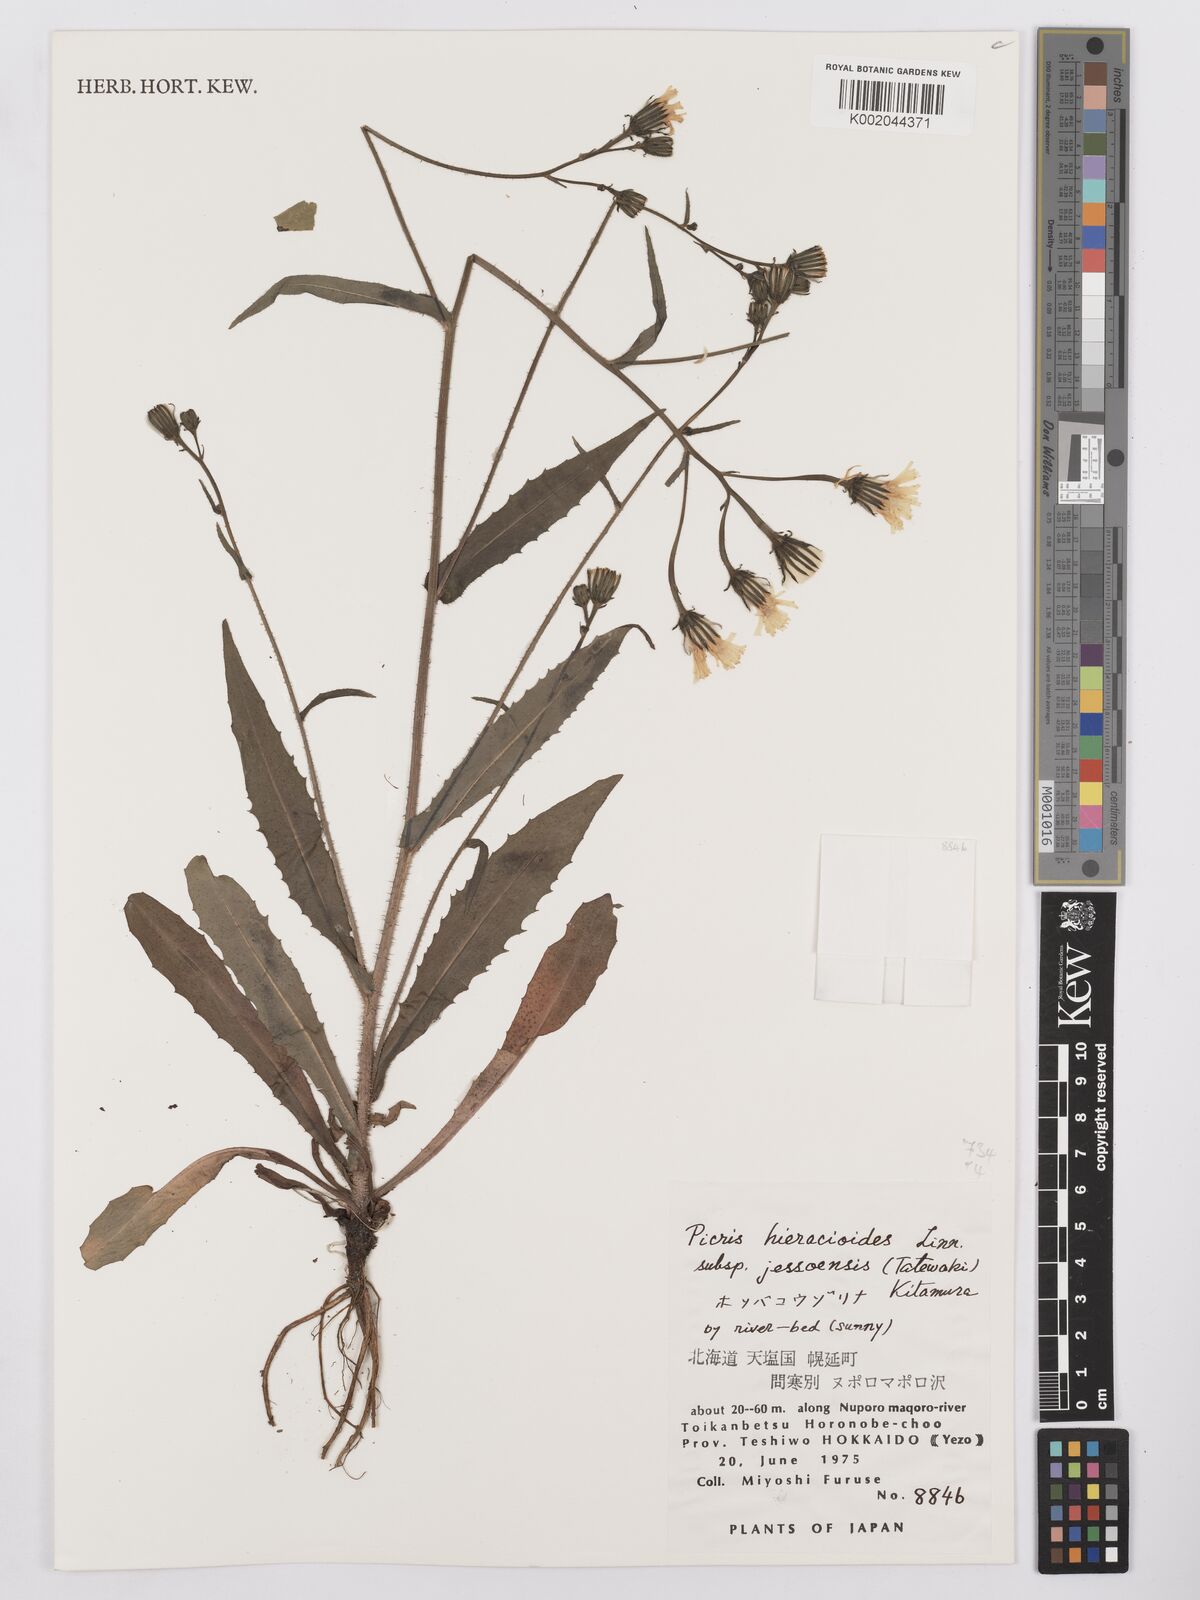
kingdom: Plantae
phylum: Tracheophyta
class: Magnoliopsida
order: Asterales
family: Asteraceae
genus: Picris
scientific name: Picris hieracioides
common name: Hawkweed oxtongue
